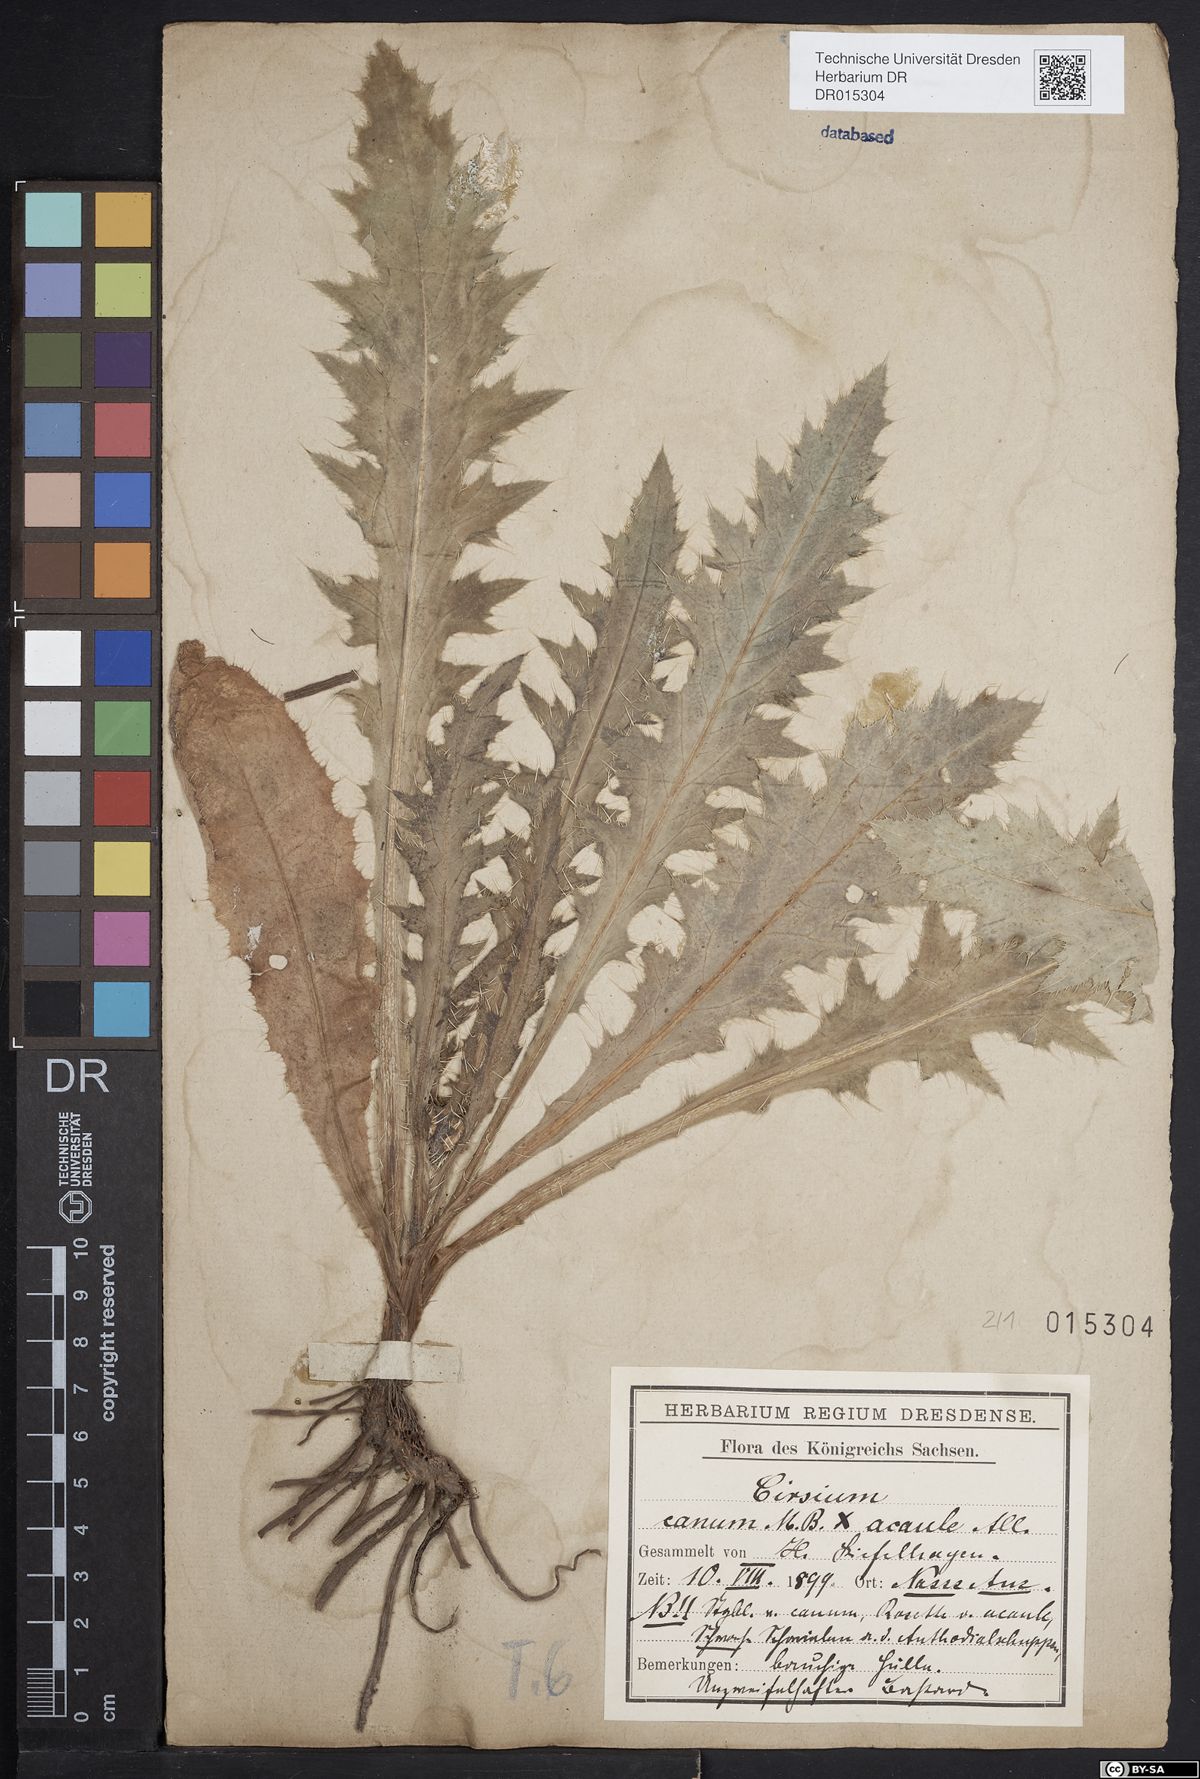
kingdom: Plantae
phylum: Tracheophyta
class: Magnoliopsida
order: Asterales
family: Asteraceae
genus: Cirsium
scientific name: Cirsium winklerianum
